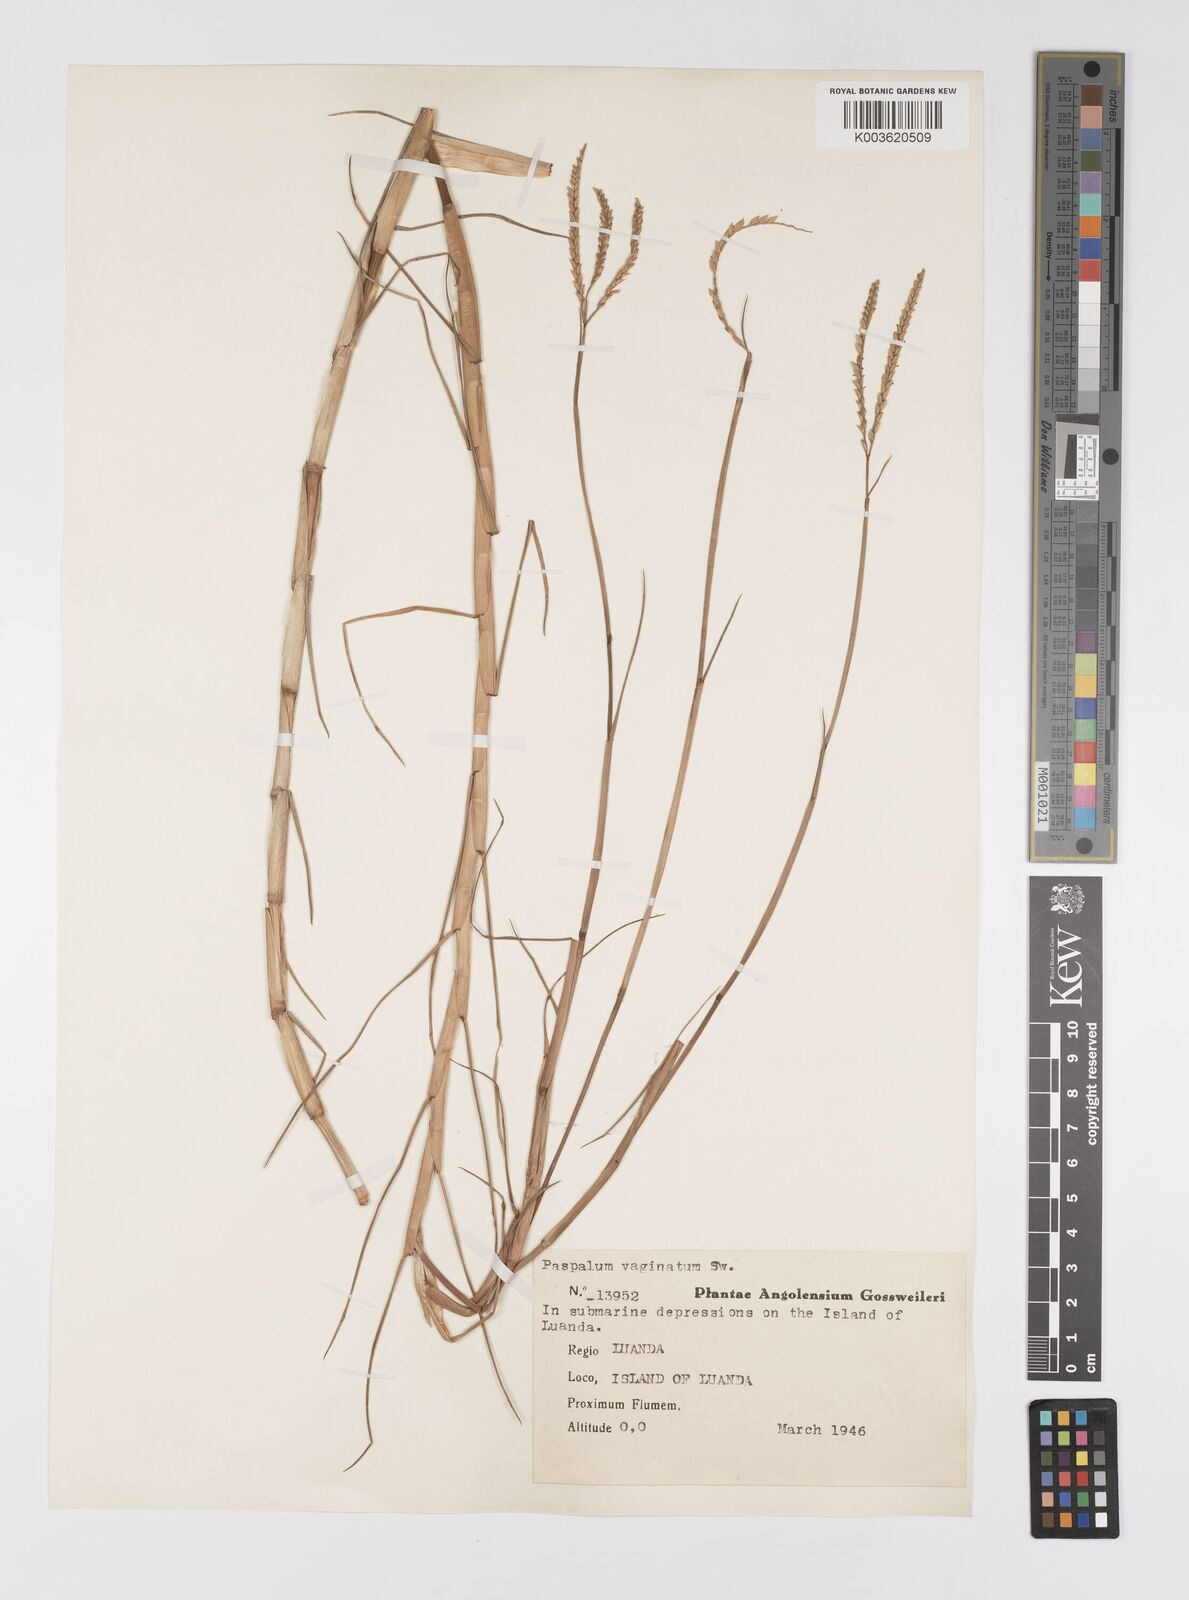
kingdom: Plantae
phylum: Tracheophyta
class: Liliopsida
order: Poales
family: Poaceae
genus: Paspalum
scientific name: Paspalum vaginatum
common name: Seashore paspalum
